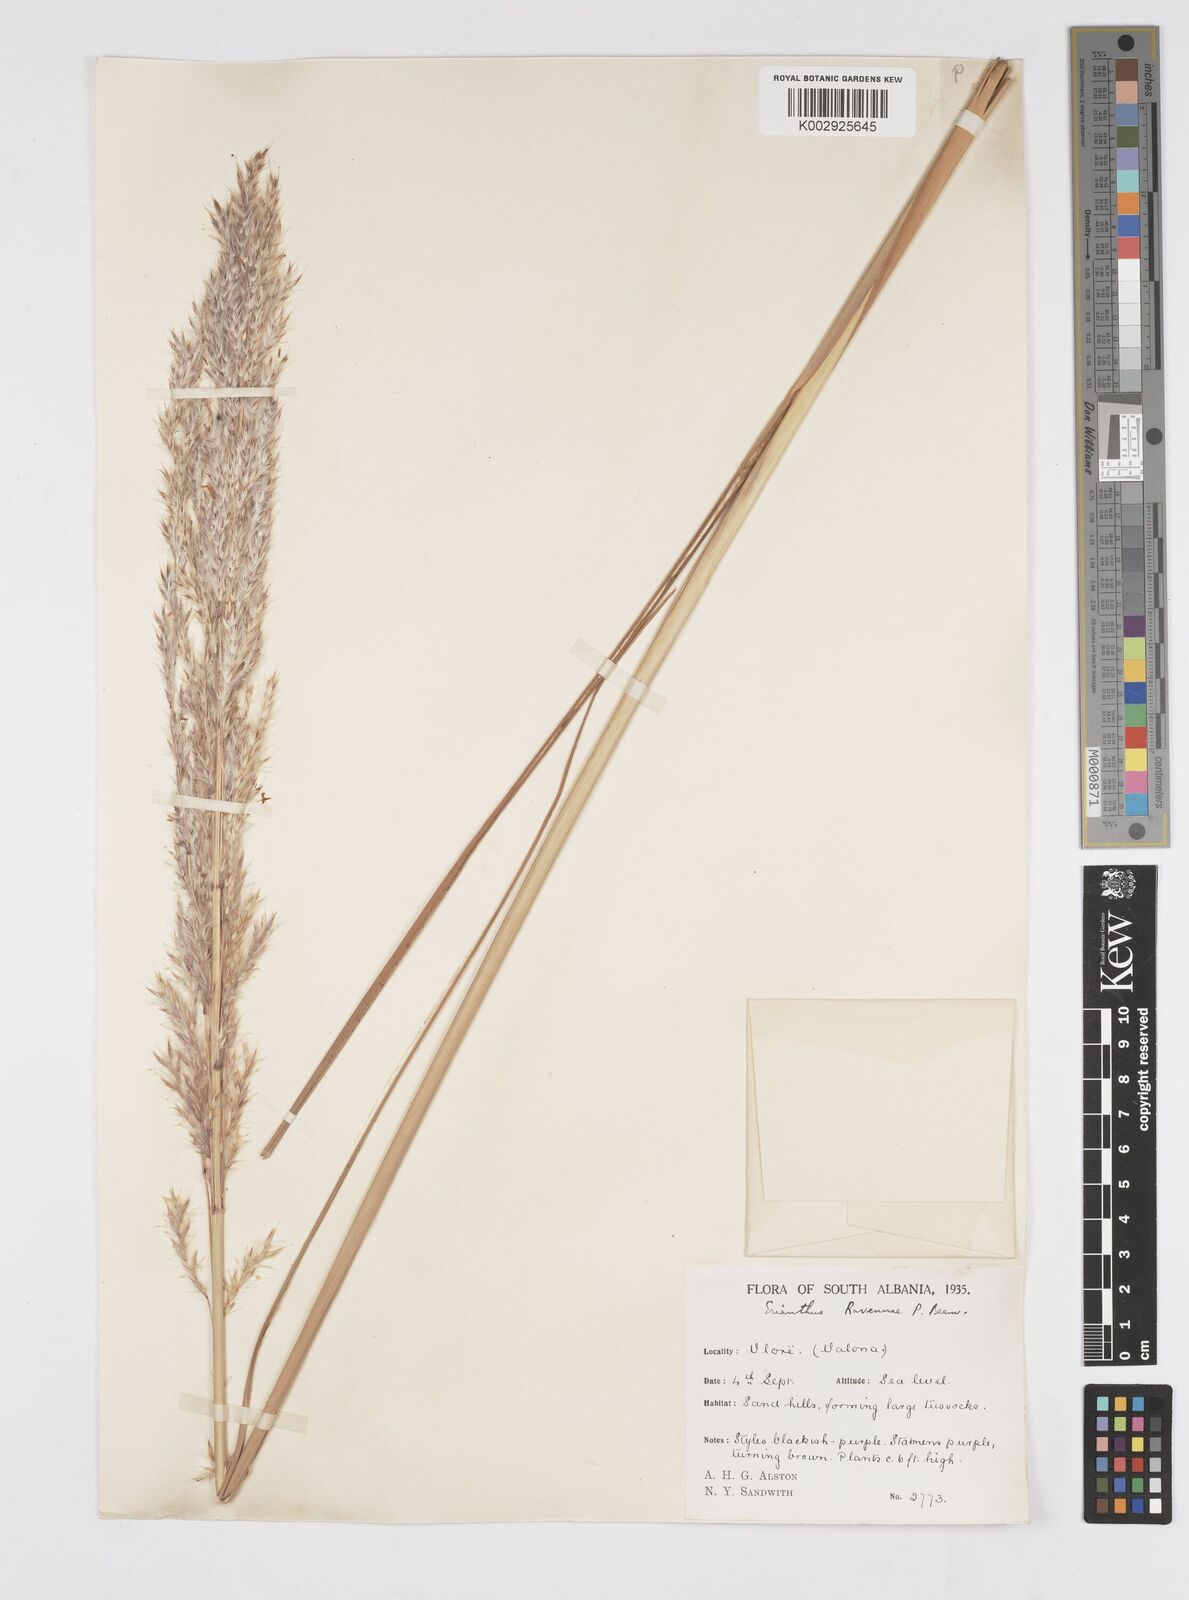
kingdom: Plantae
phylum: Tracheophyta
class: Liliopsida
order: Poales
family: Poaceae
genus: Tripidium
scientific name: Tripidium ravennae
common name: Ravenna grass
